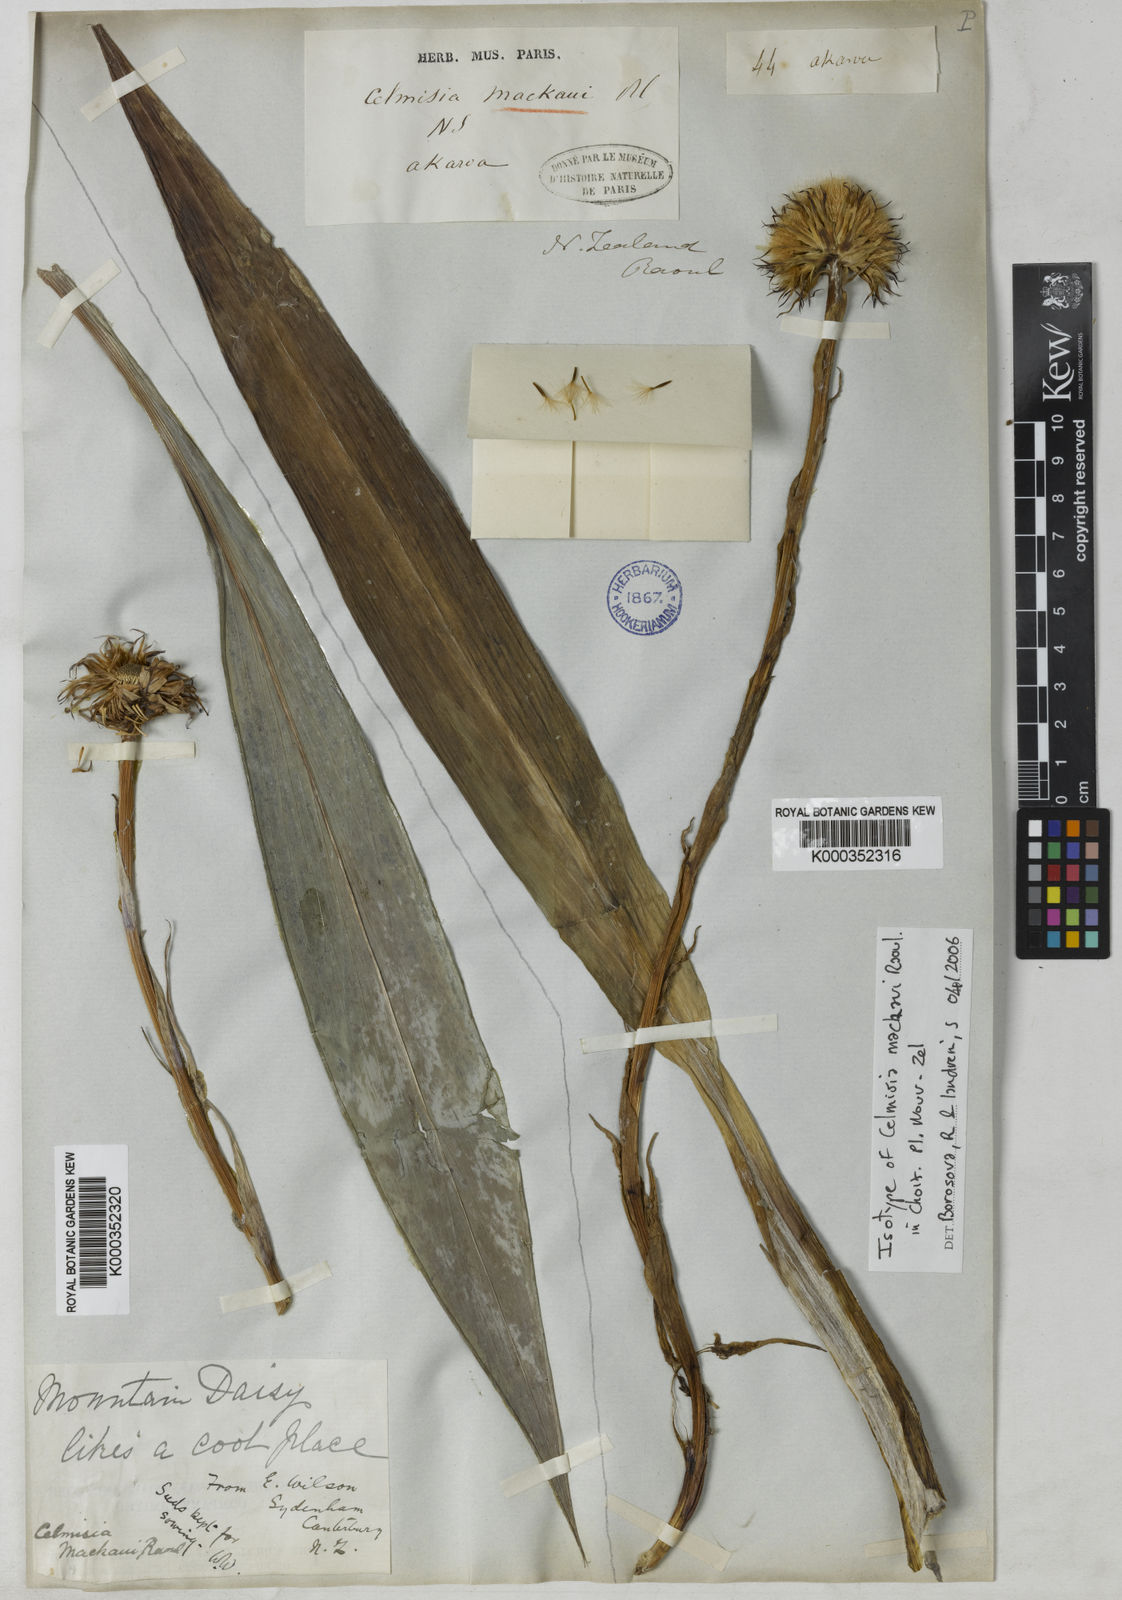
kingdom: Plantae
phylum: Tracheophyta
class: Magnoliopsida
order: Asterales
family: Asteraceae
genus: Celmisia
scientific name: Celmisia mackaui
